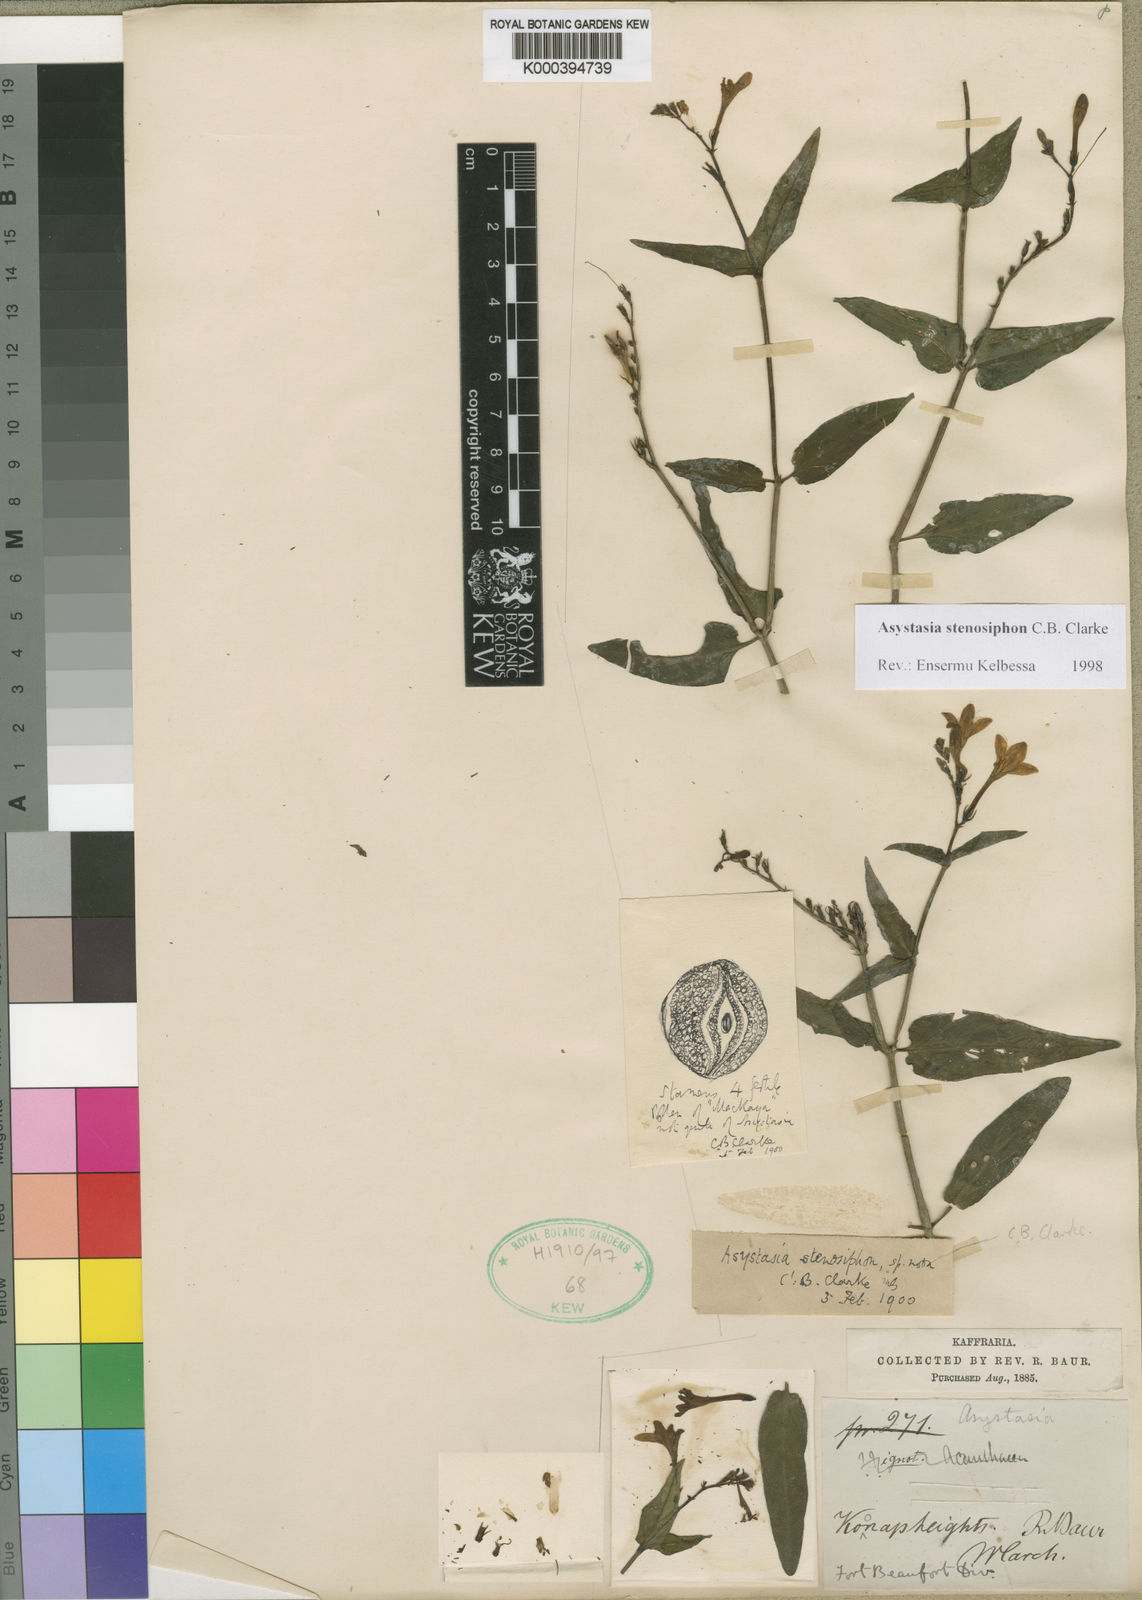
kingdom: Plantae
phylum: Tracheophyta
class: Magnoliopsida
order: Lamiales
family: Acanthaceae
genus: Asystasia
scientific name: Asystasia stenosiphon
